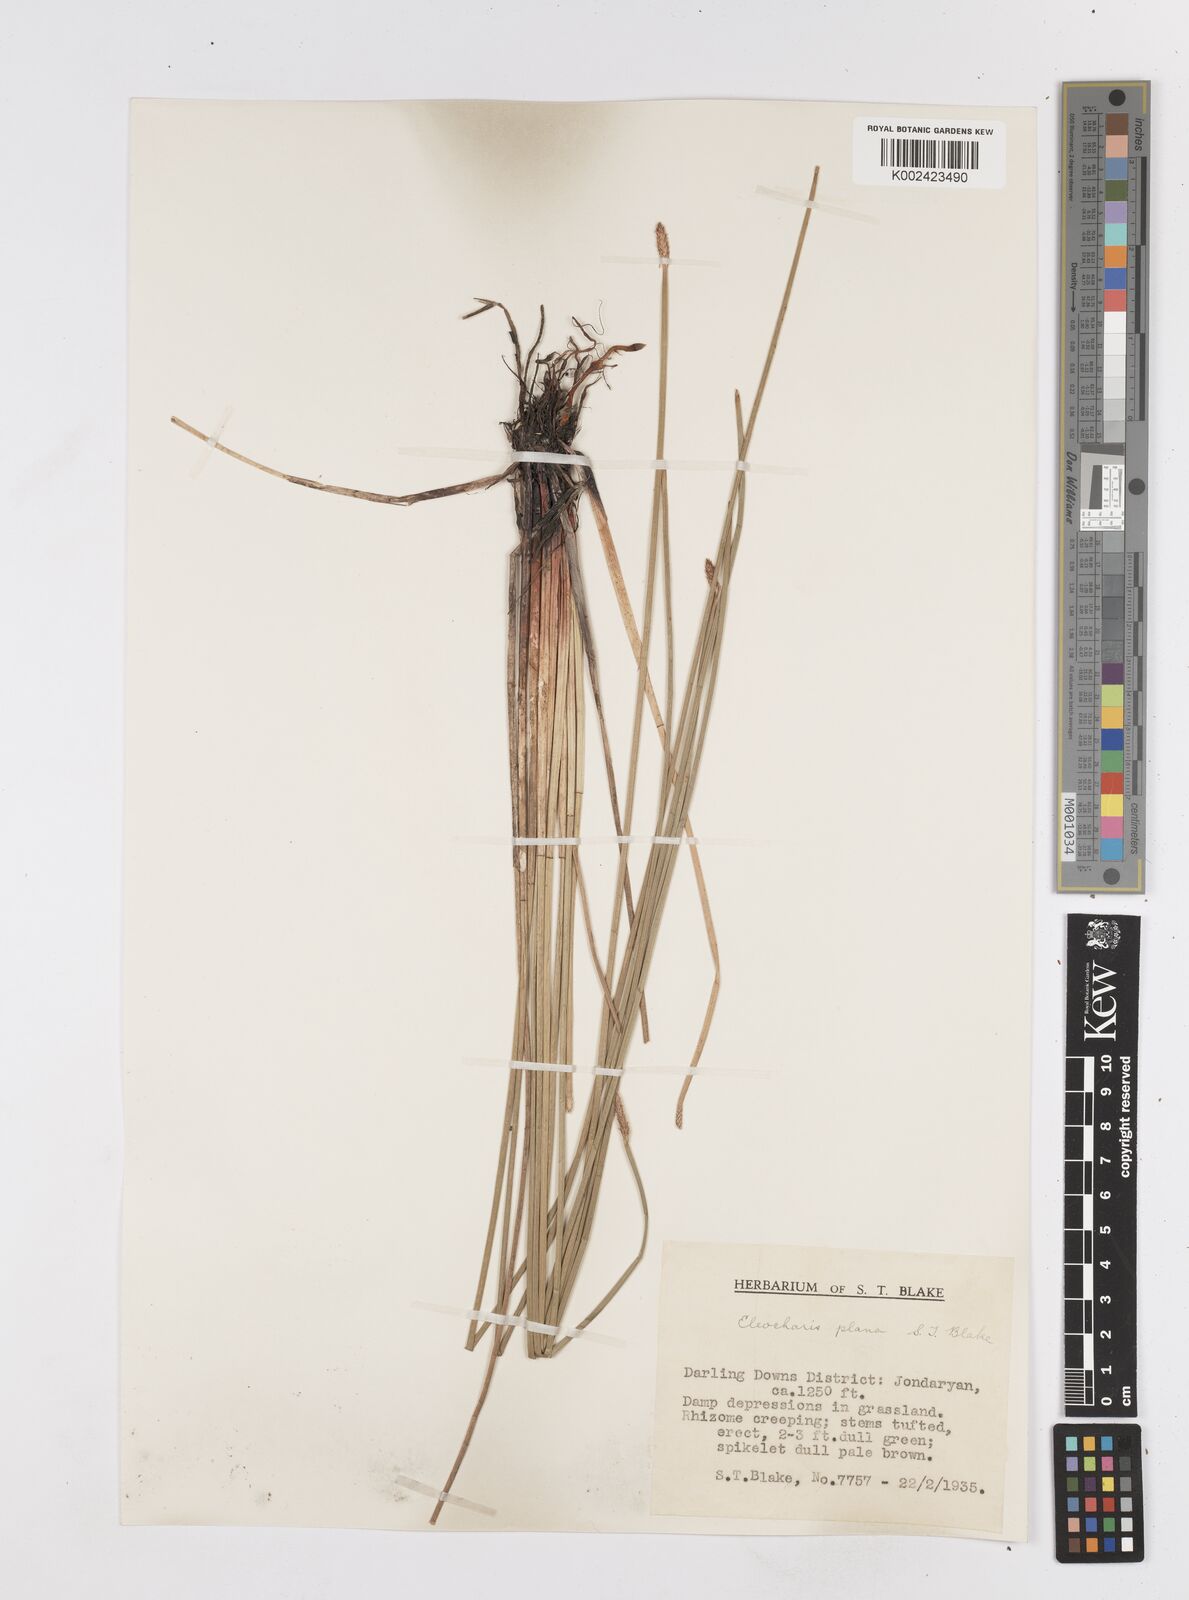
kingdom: Plantae
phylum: Tracheophyta
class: Liliopsida
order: Poales
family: Cyperaceae
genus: Eleocharis
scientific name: Eleocharis plana
